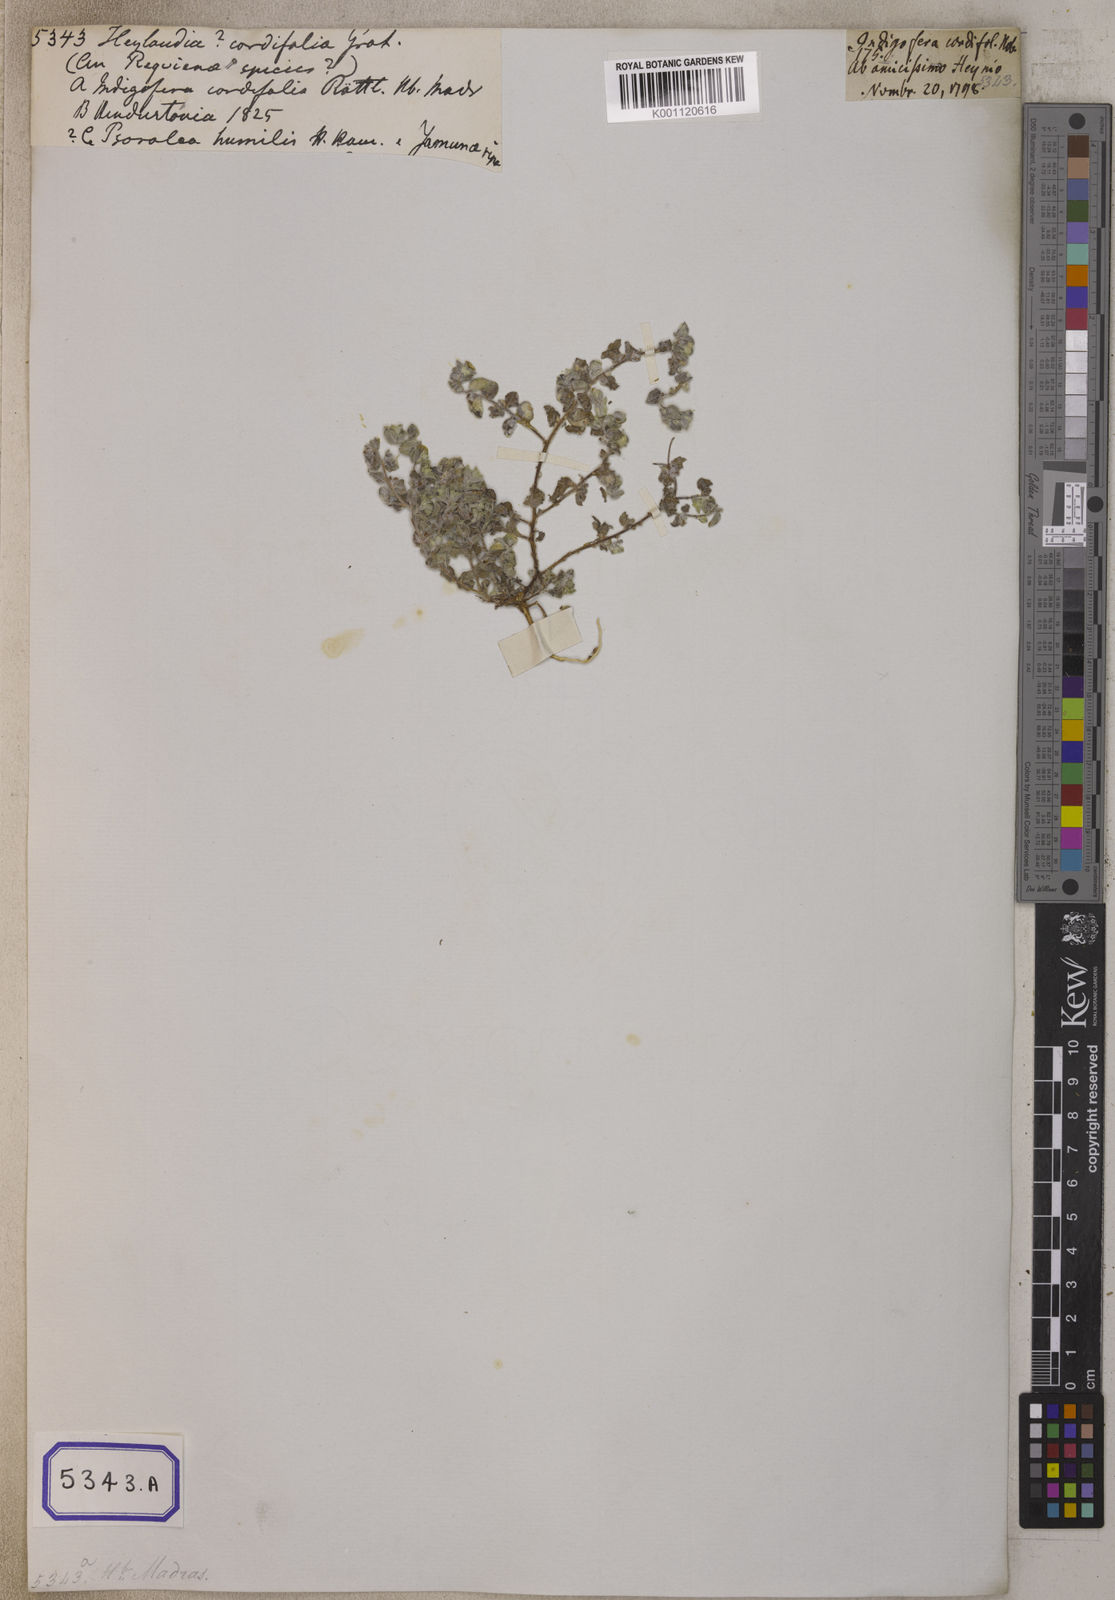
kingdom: Plantae
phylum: Tracheophyta
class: Magnoliopsida
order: Fabales
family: Fabaceae
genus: Indigofera
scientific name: Indigofera cordifolia
